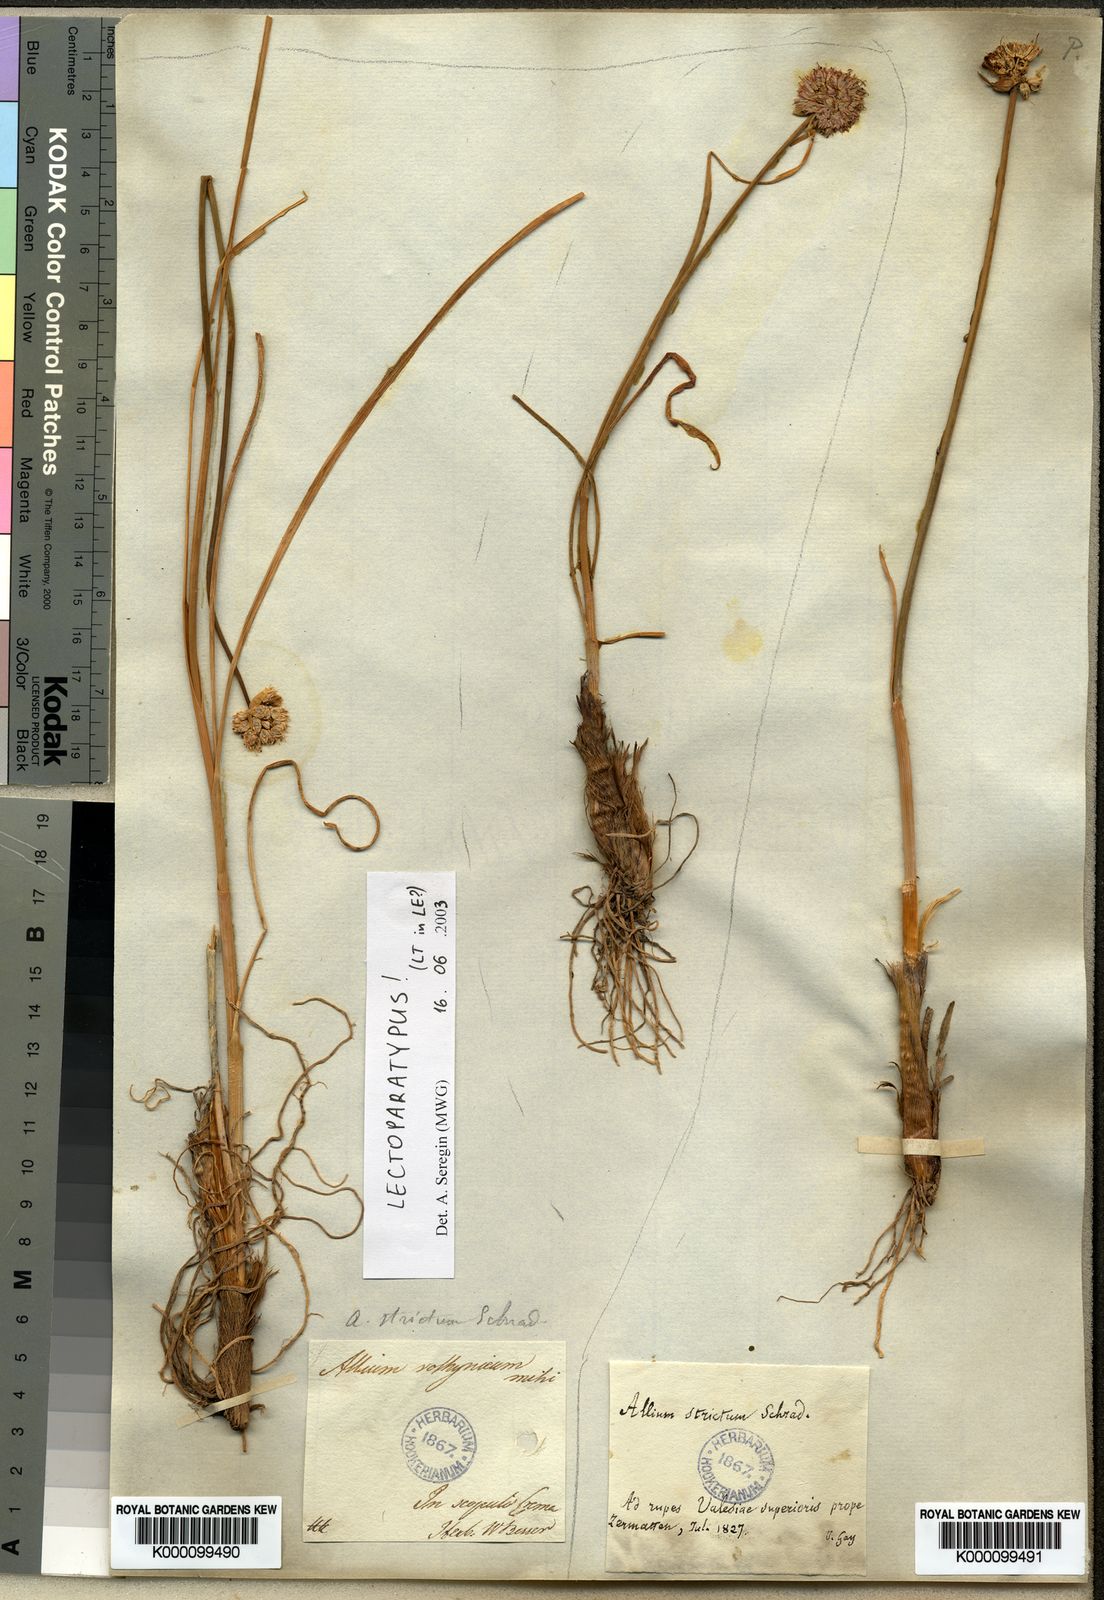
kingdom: Plantae
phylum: Tracheophyta
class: Liliopsida
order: Asparagales
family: Amaryllidaceae
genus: Allium
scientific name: Allium strictum
